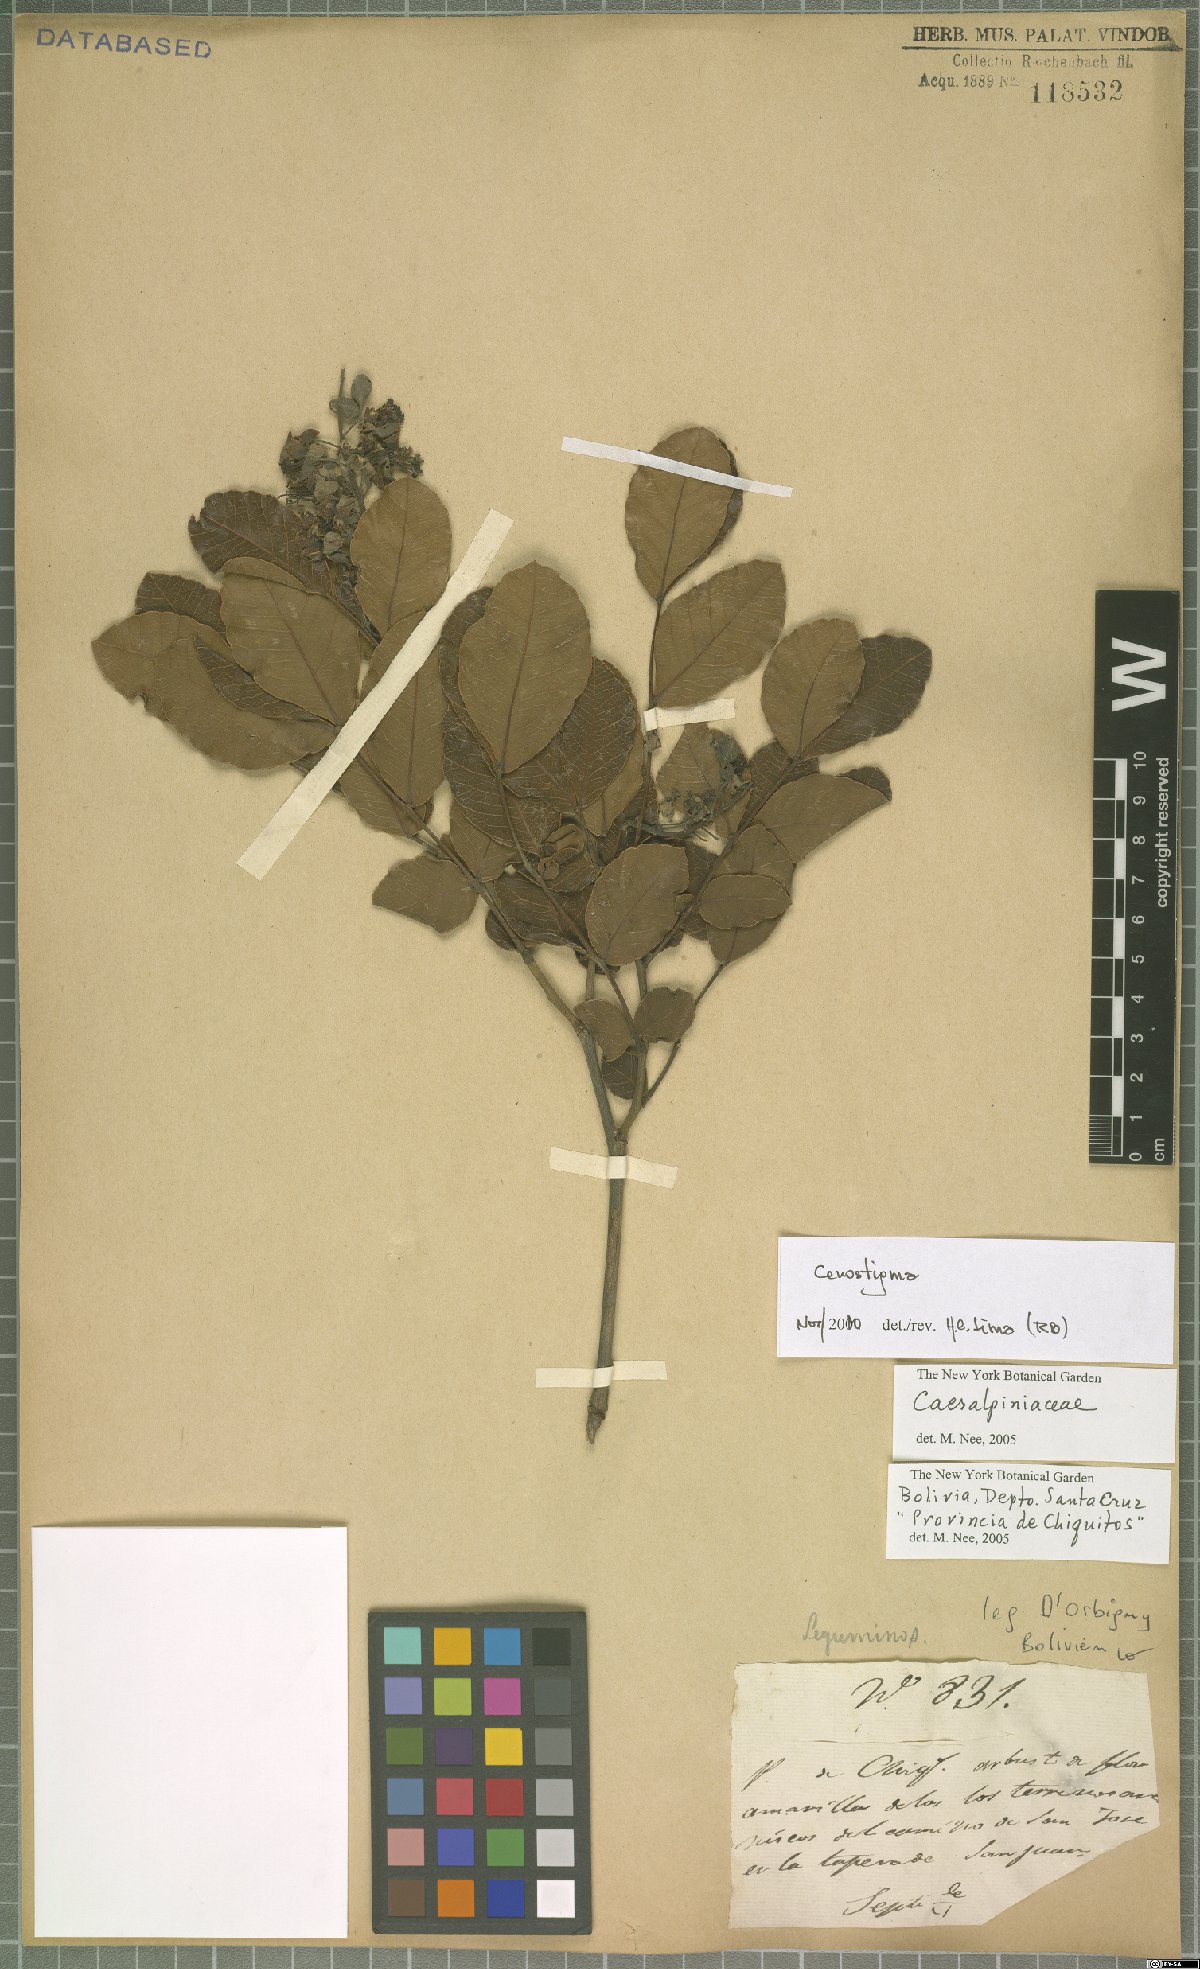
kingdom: Plantae
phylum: Tracheophyta
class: Magnoliopsida
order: Fabales
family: Fabaceae
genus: Cenostigma
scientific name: Cenostigma
